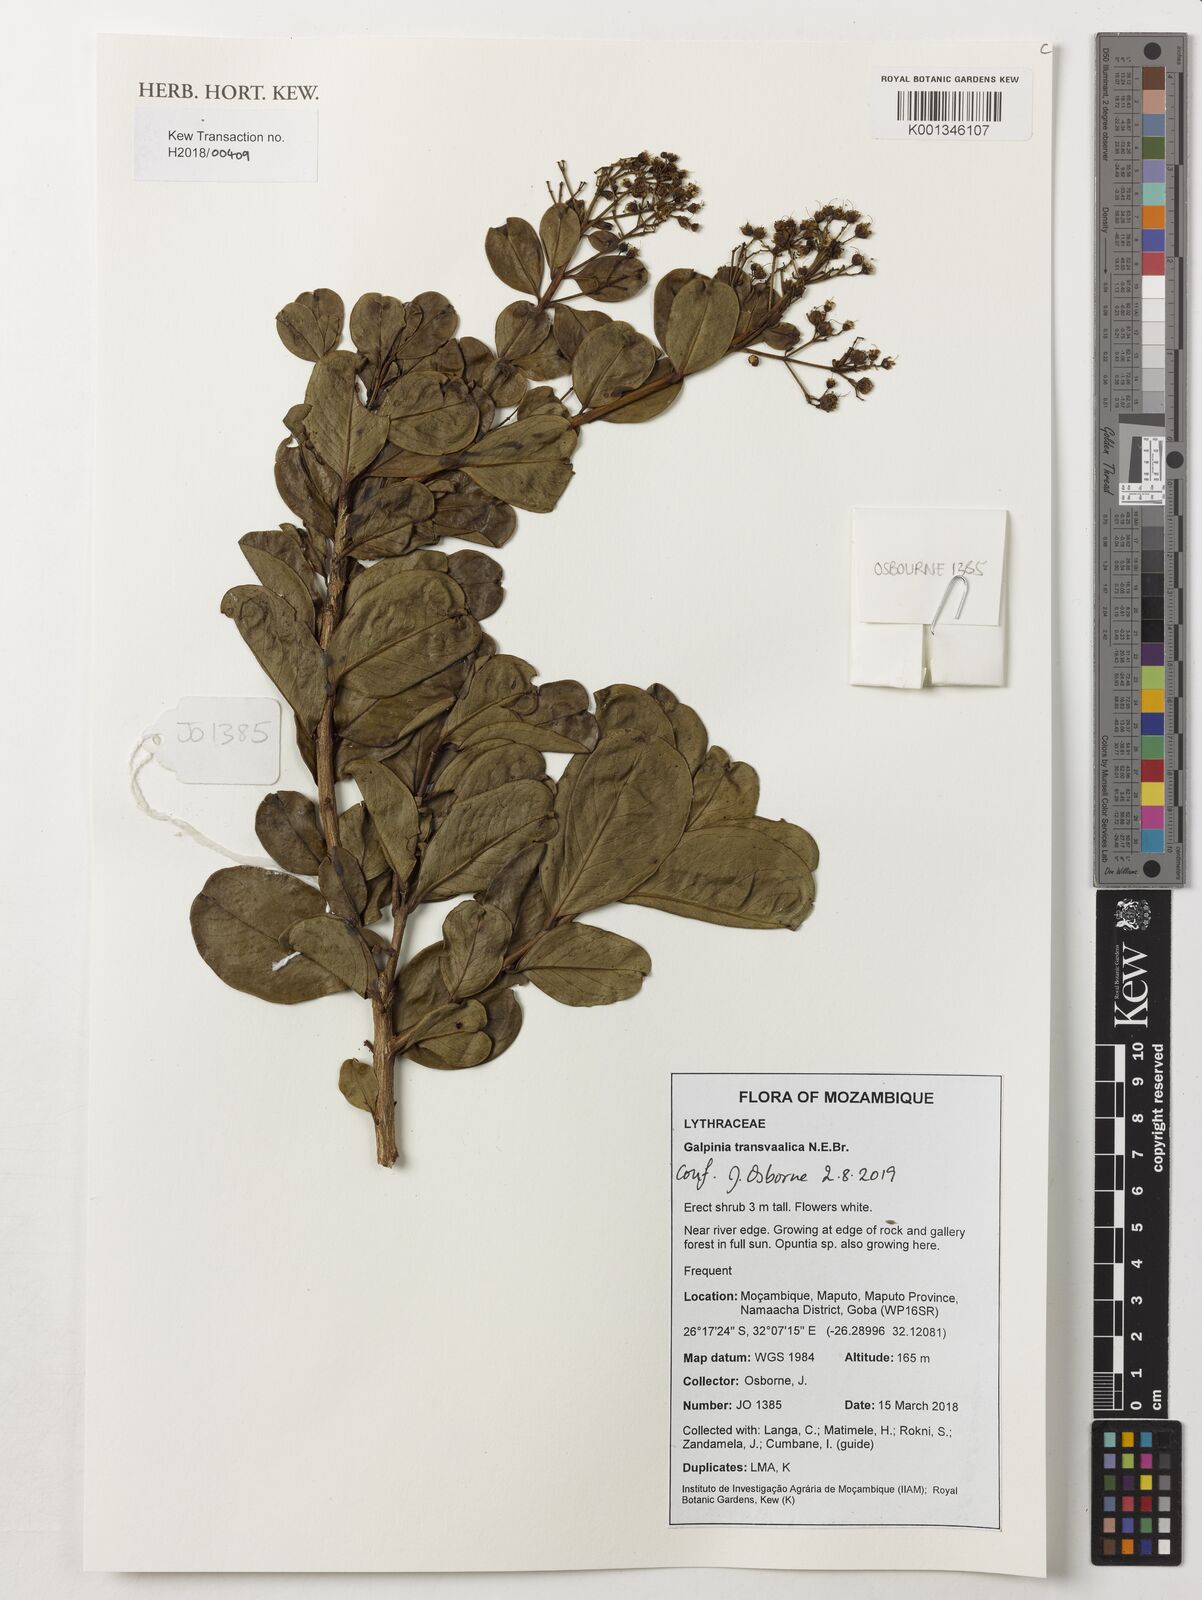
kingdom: Plantae
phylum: Tracheophyta
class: Magnoliopsida
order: Myrtales
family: Lythraceae
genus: Galpinia
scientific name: Galpinia transvaalica
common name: Wild pride of india
